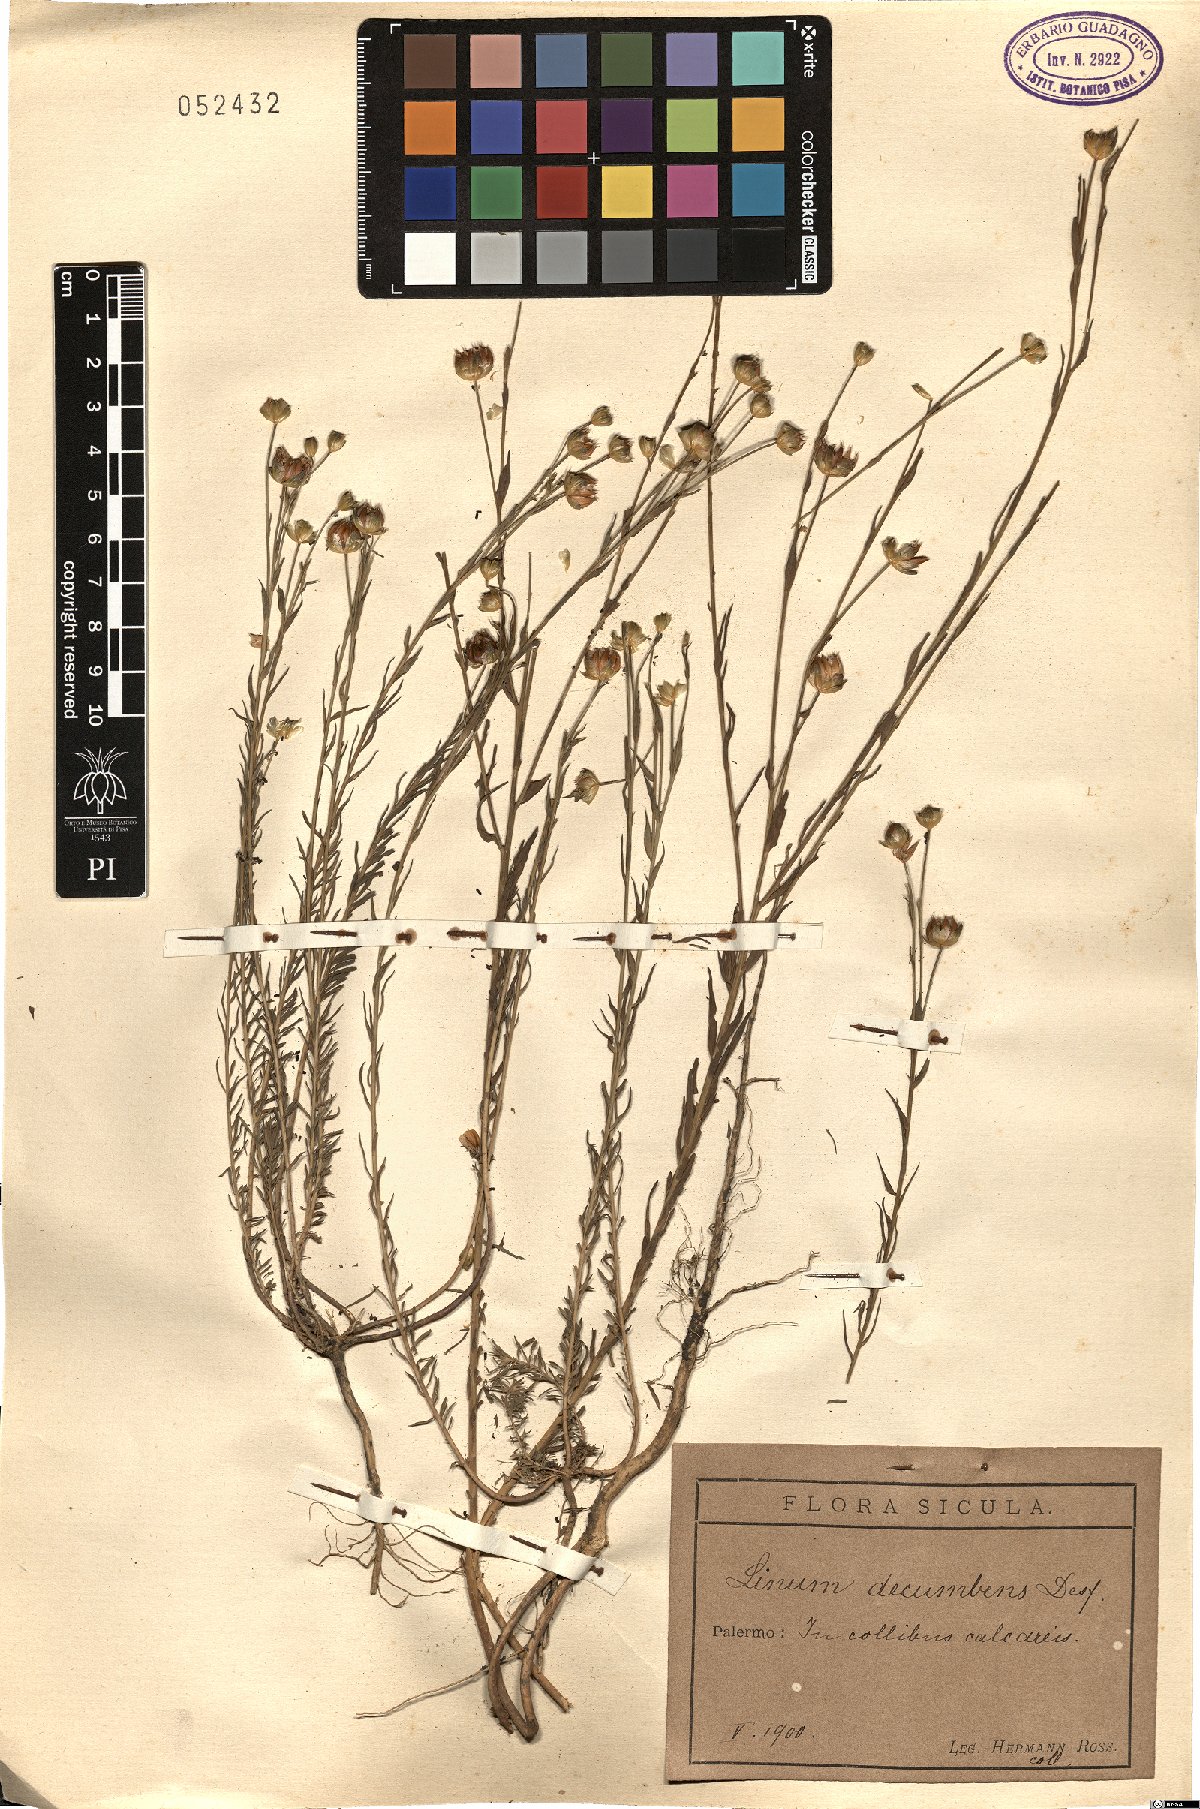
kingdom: Plantae
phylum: Tracheophyta
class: Magnoliopsida
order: Malpighiales
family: Linaceae
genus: Linum
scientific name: Linum decumbens
